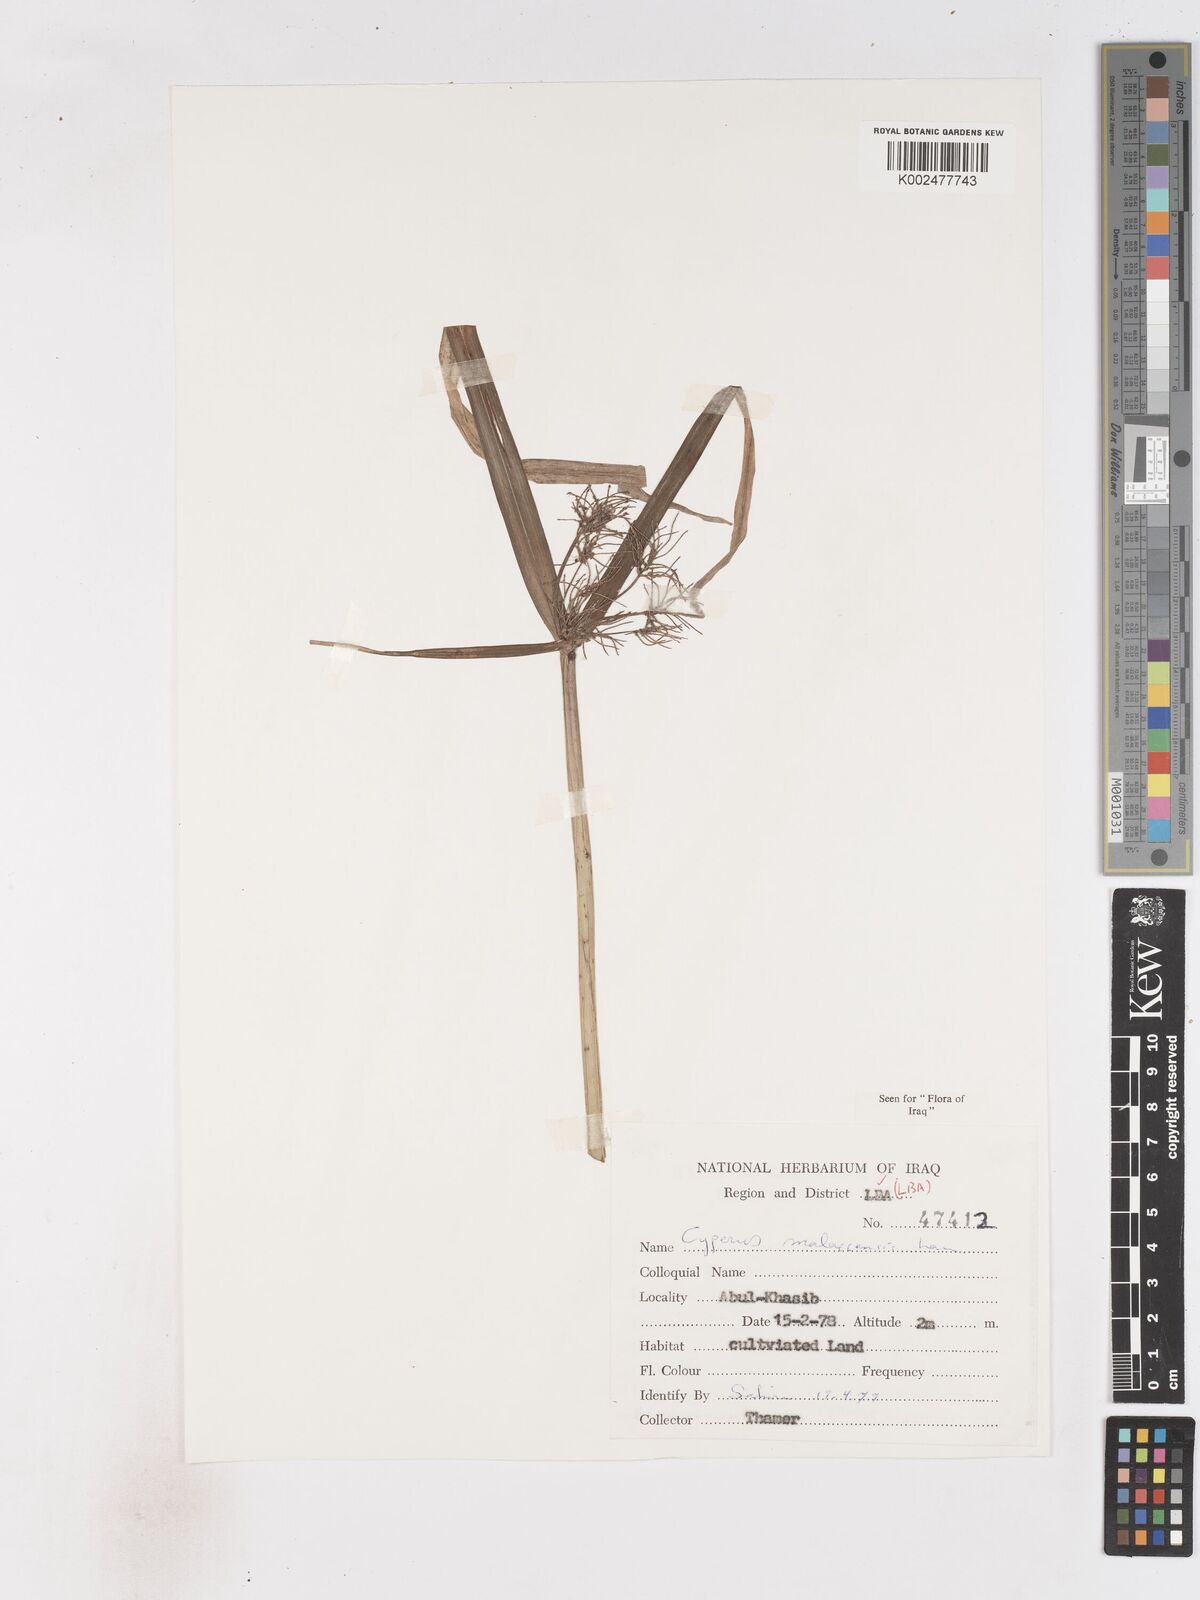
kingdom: Plantae
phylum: Tracheophyta
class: Liliopsida
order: Poales
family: Cyperaceae
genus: Cyperus
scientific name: Cyperus malaccensis
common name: Shichito matgrass
